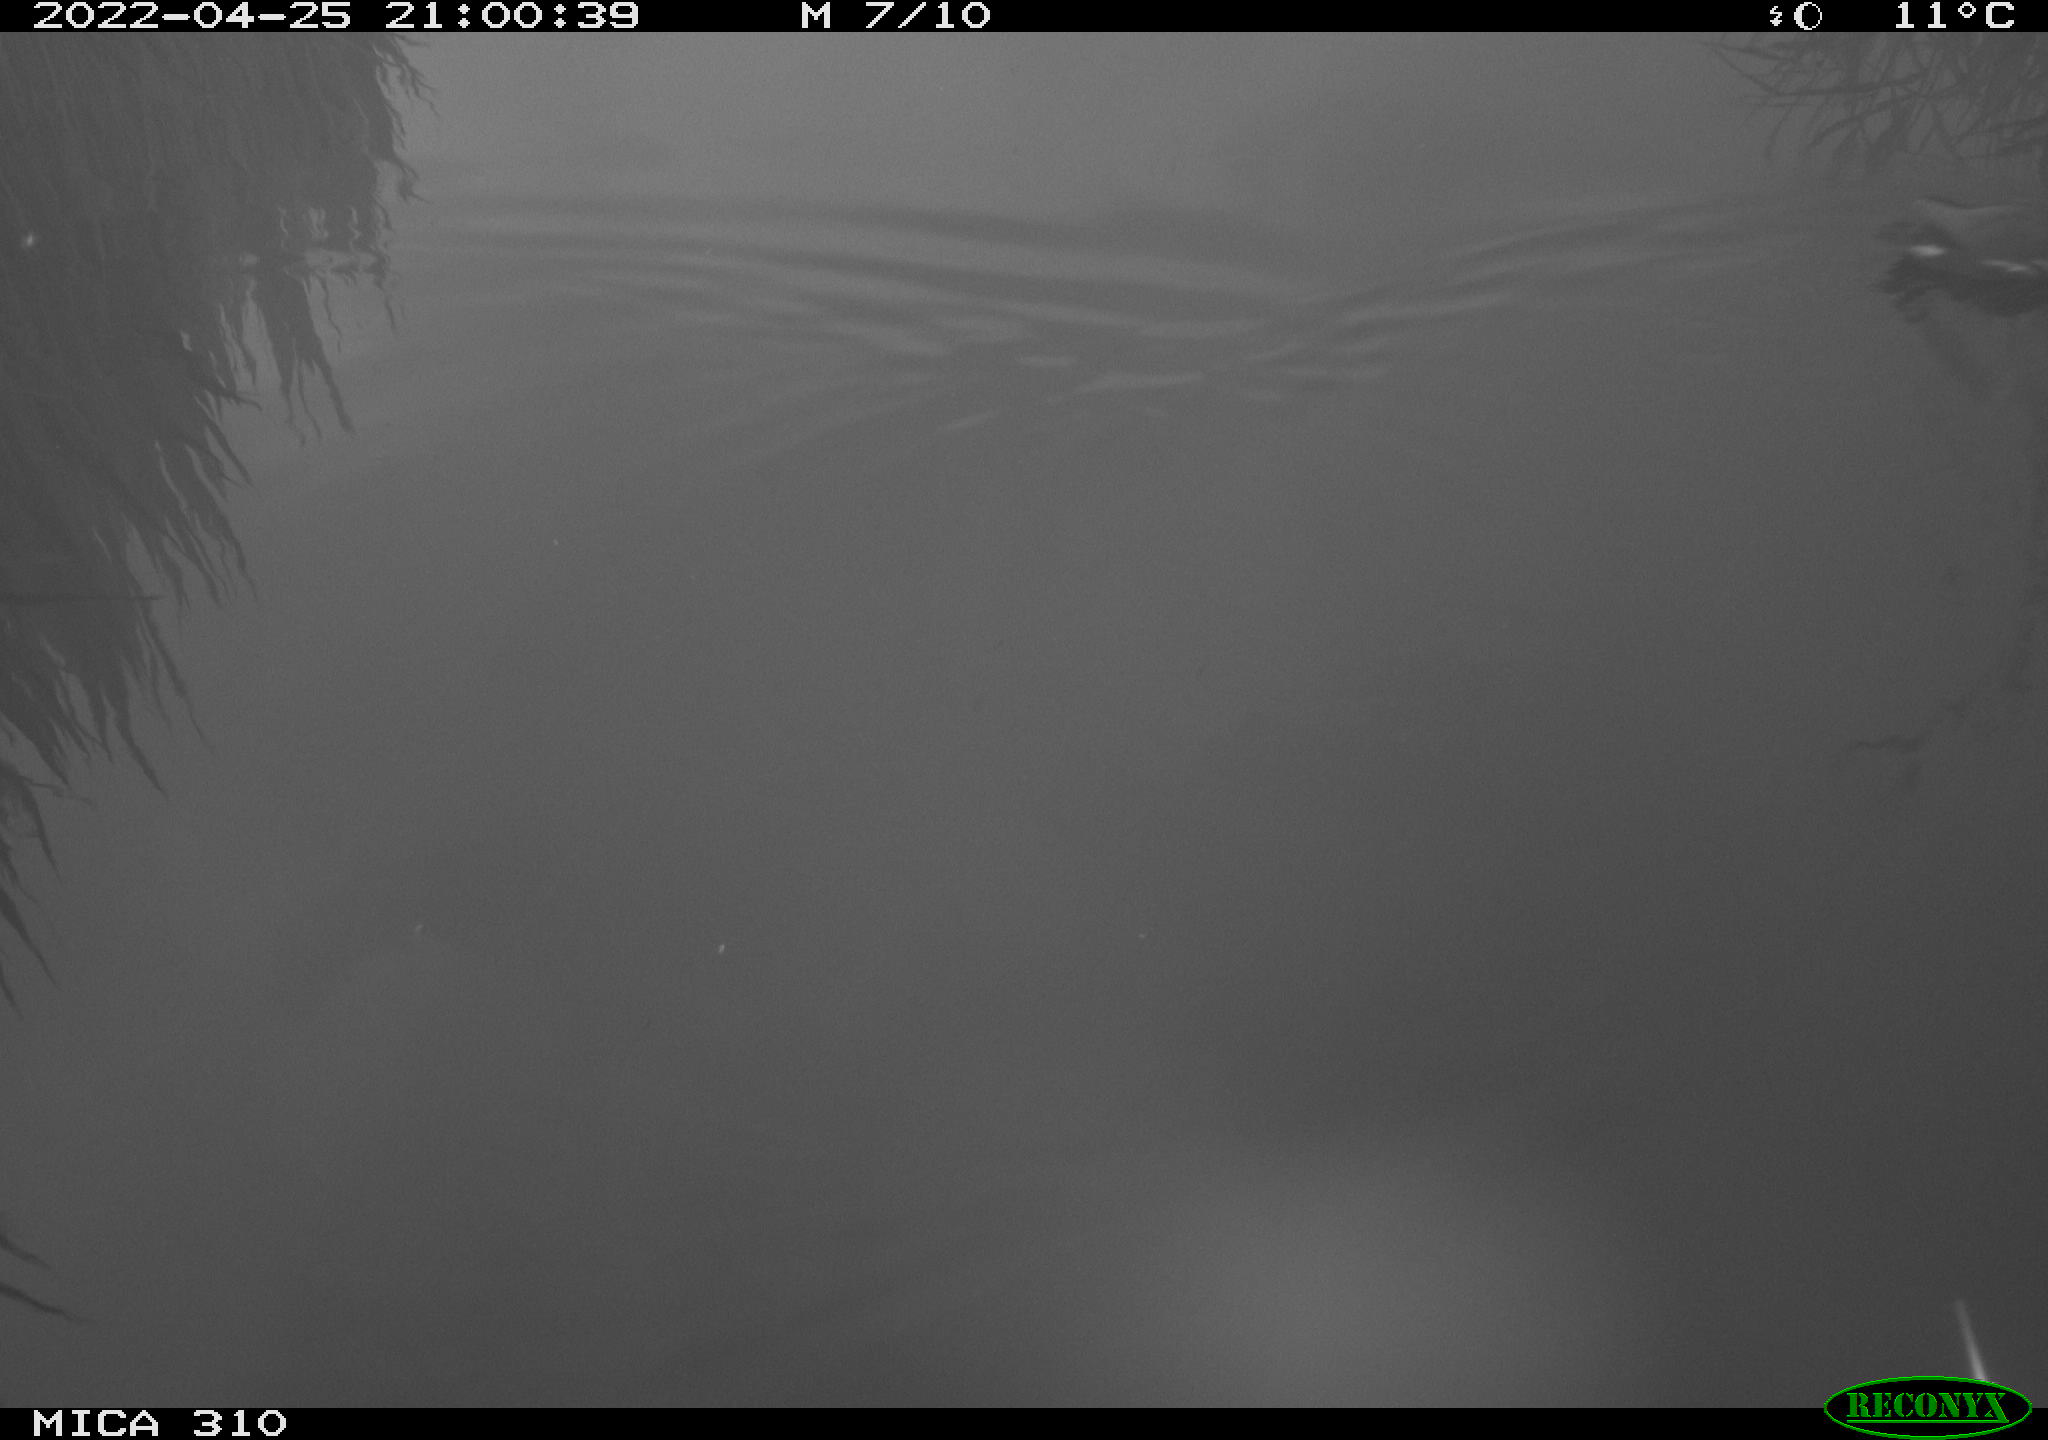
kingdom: Animalia
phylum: Chordata
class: Aves
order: Gruiformes
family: Rallidae
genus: Gallinula
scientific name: Gallinula chloropus
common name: Common moorhen
